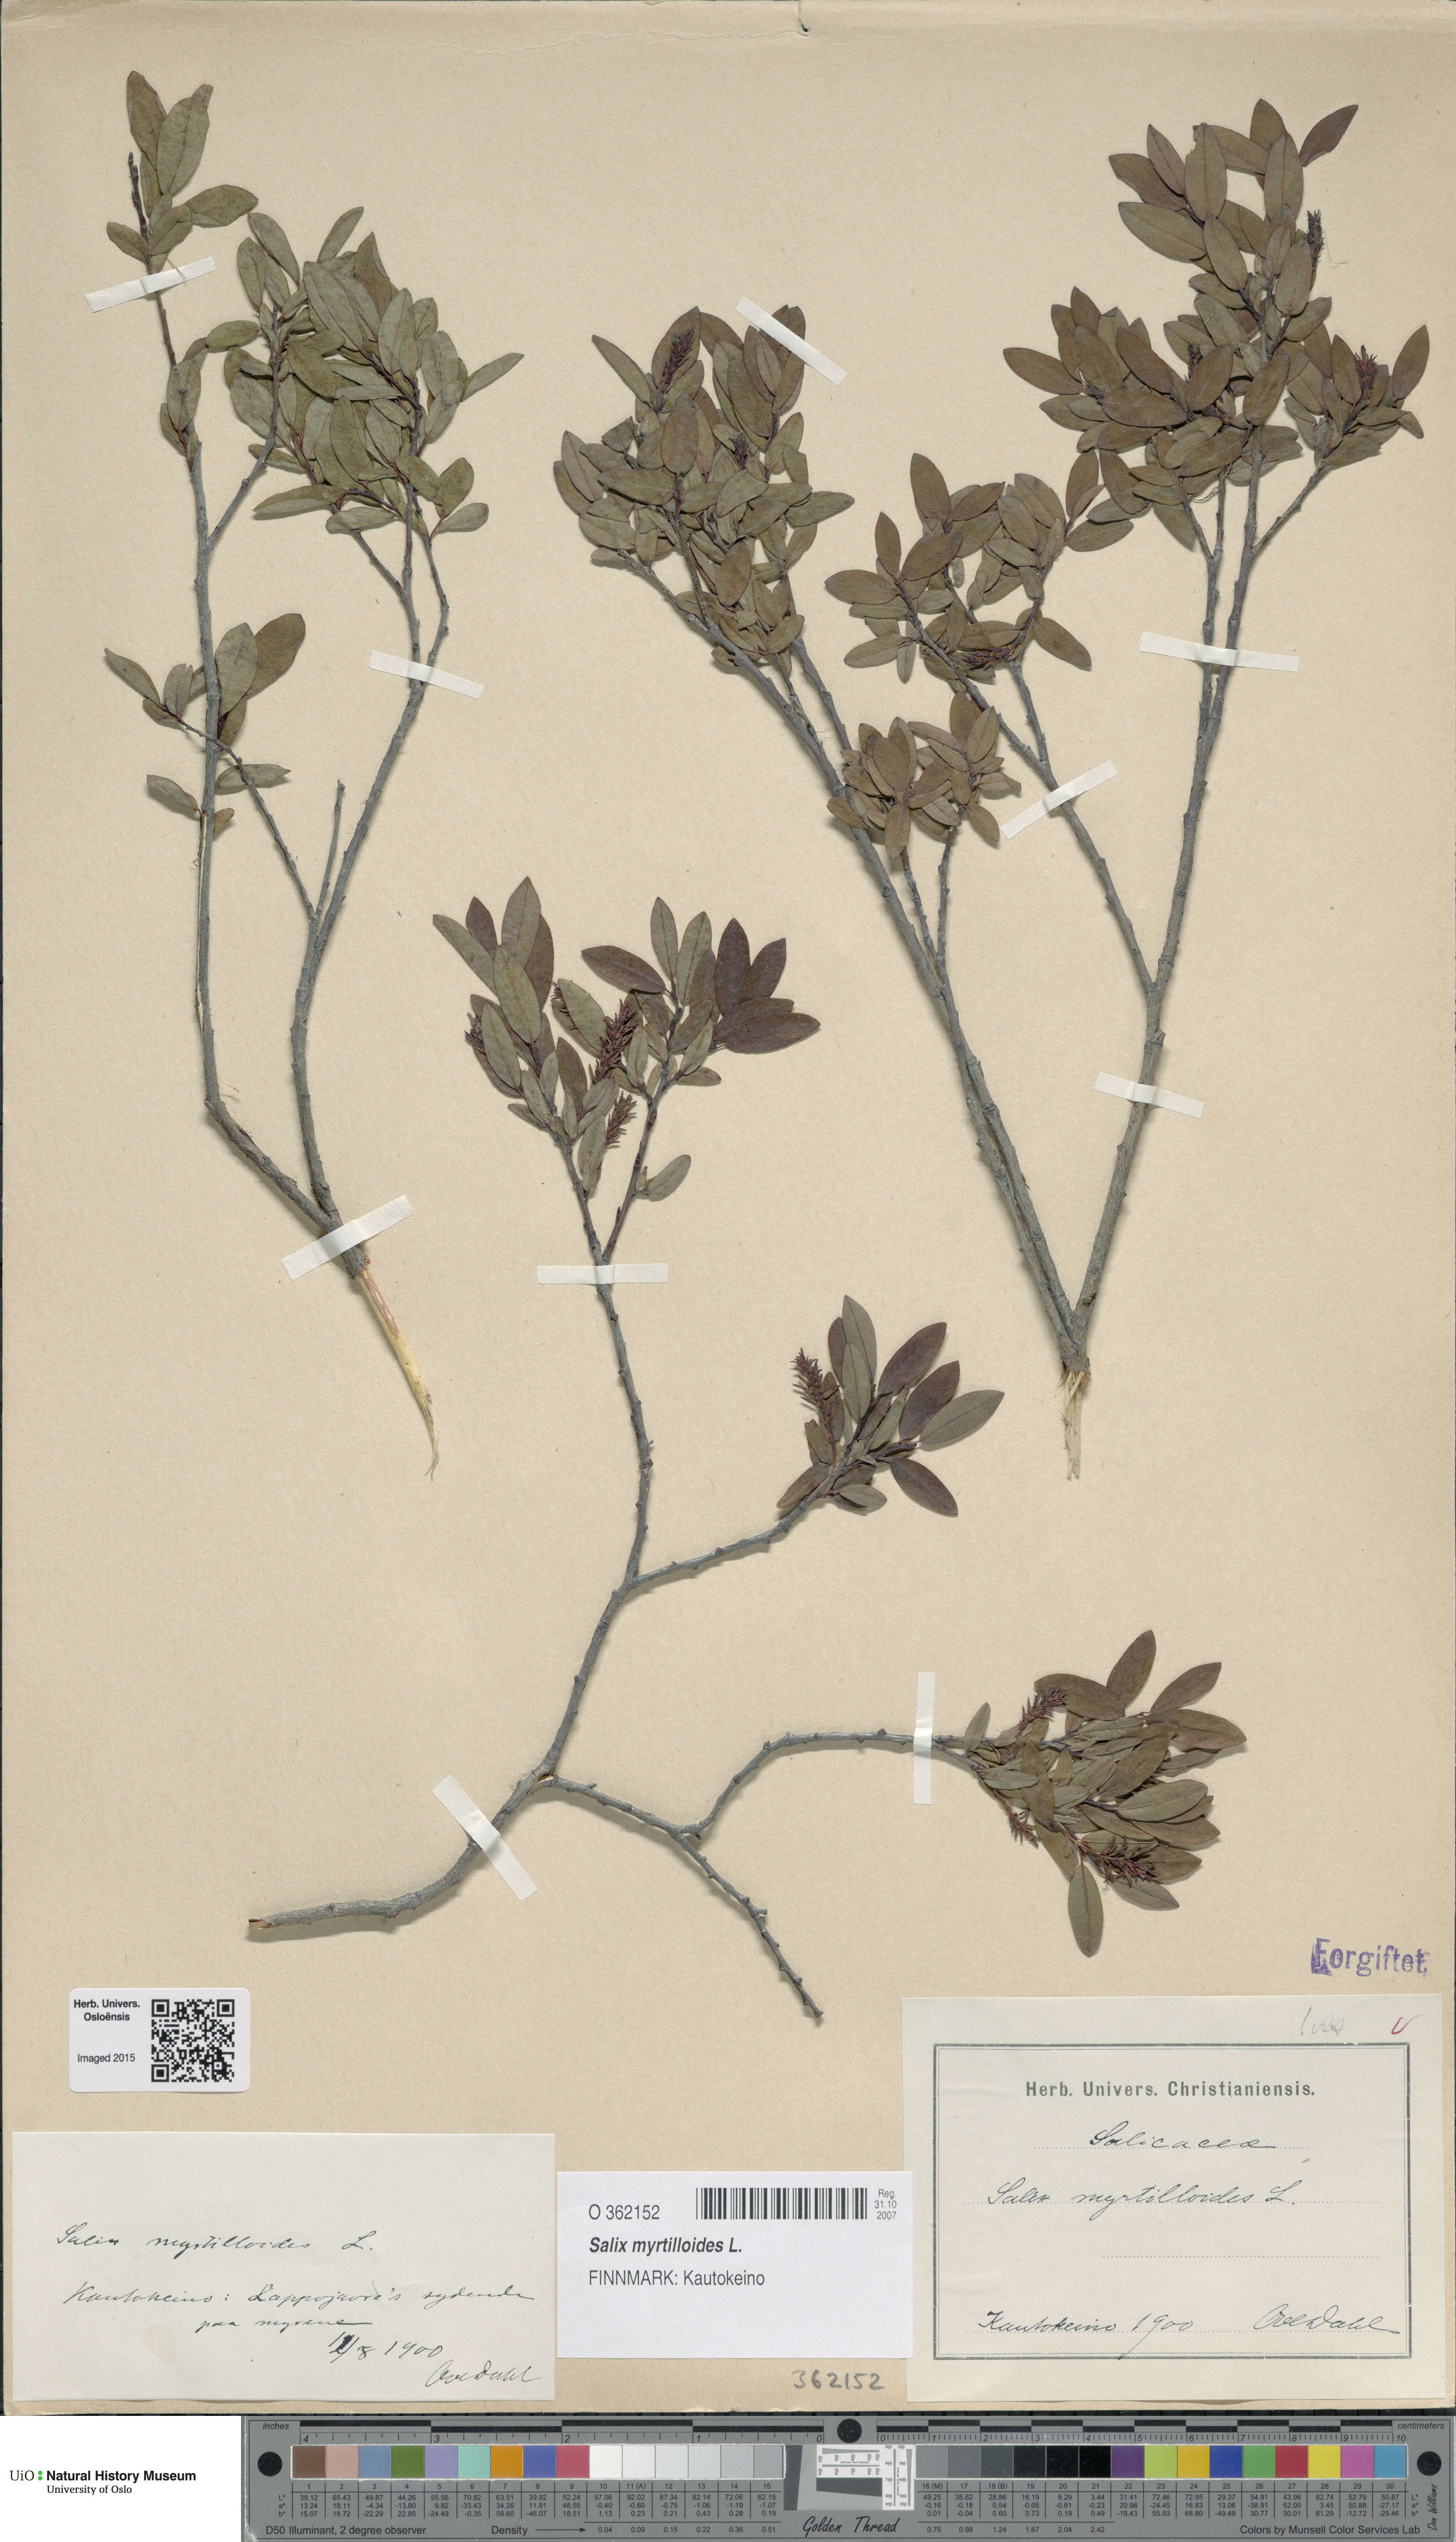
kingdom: Plantae
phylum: Tracheophyta
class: Magnoliopsida
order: Malpighiales
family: Salicaceae
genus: Salix
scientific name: Salix myrtilloides
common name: Myrtle-leaved willow
